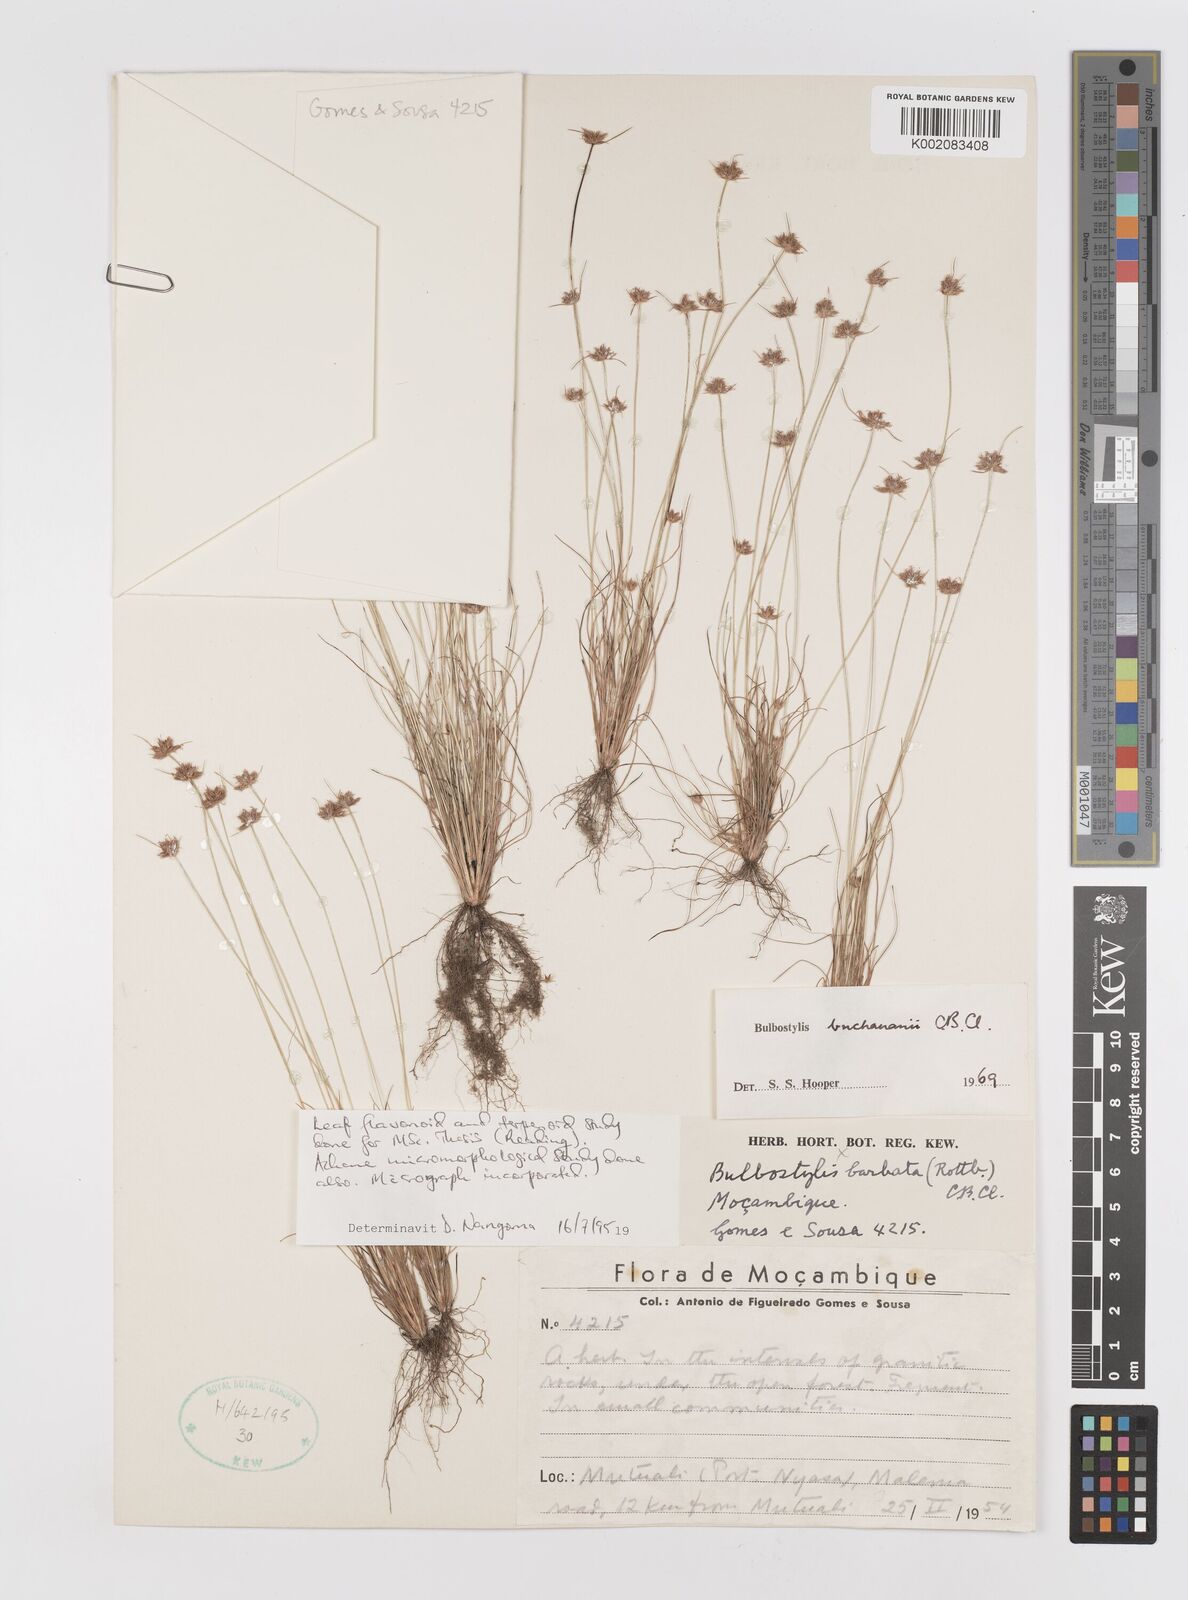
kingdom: Plantae
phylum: Tracheophyta
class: Liliopsida
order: Poales
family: Cyperaceae
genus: Bulbostylis
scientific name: Bulbostylis buchananii
